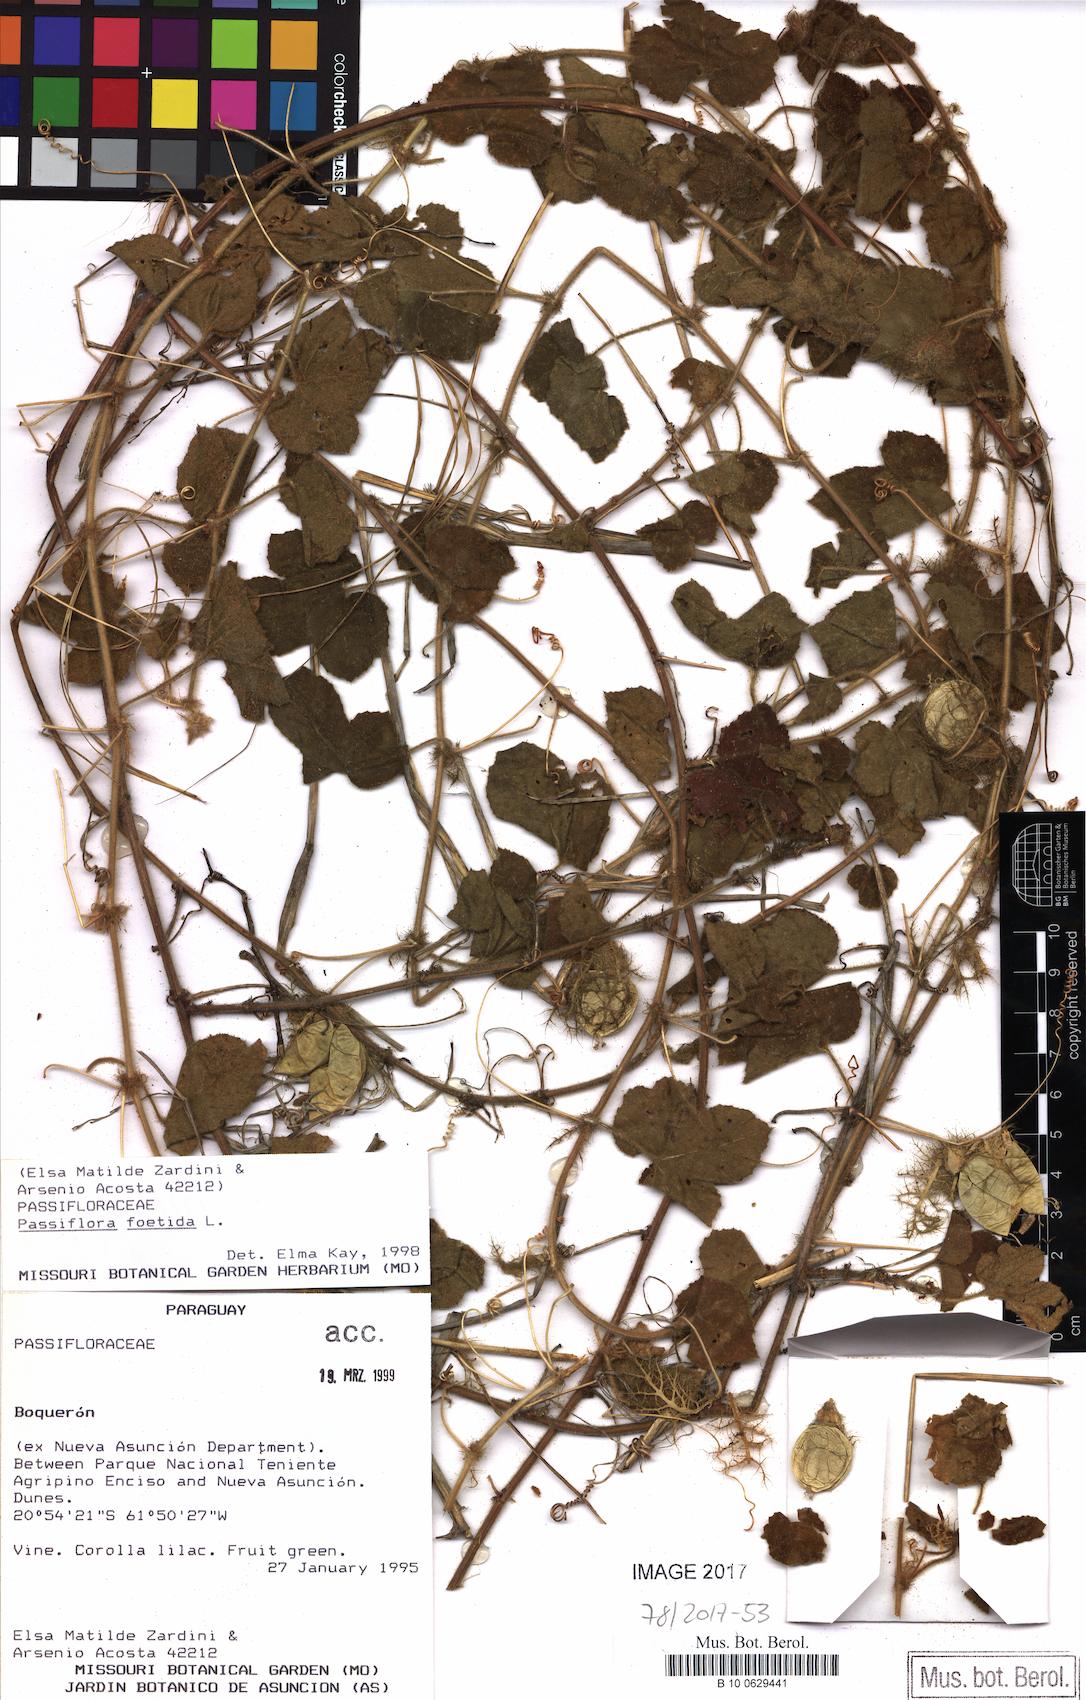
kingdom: Plantae
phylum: Tracheophyta
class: Magnoliopsida
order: Malpighiales
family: Passifloraceae
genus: Passiflora
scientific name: Passiflora foetida
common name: Fetid passionflower
